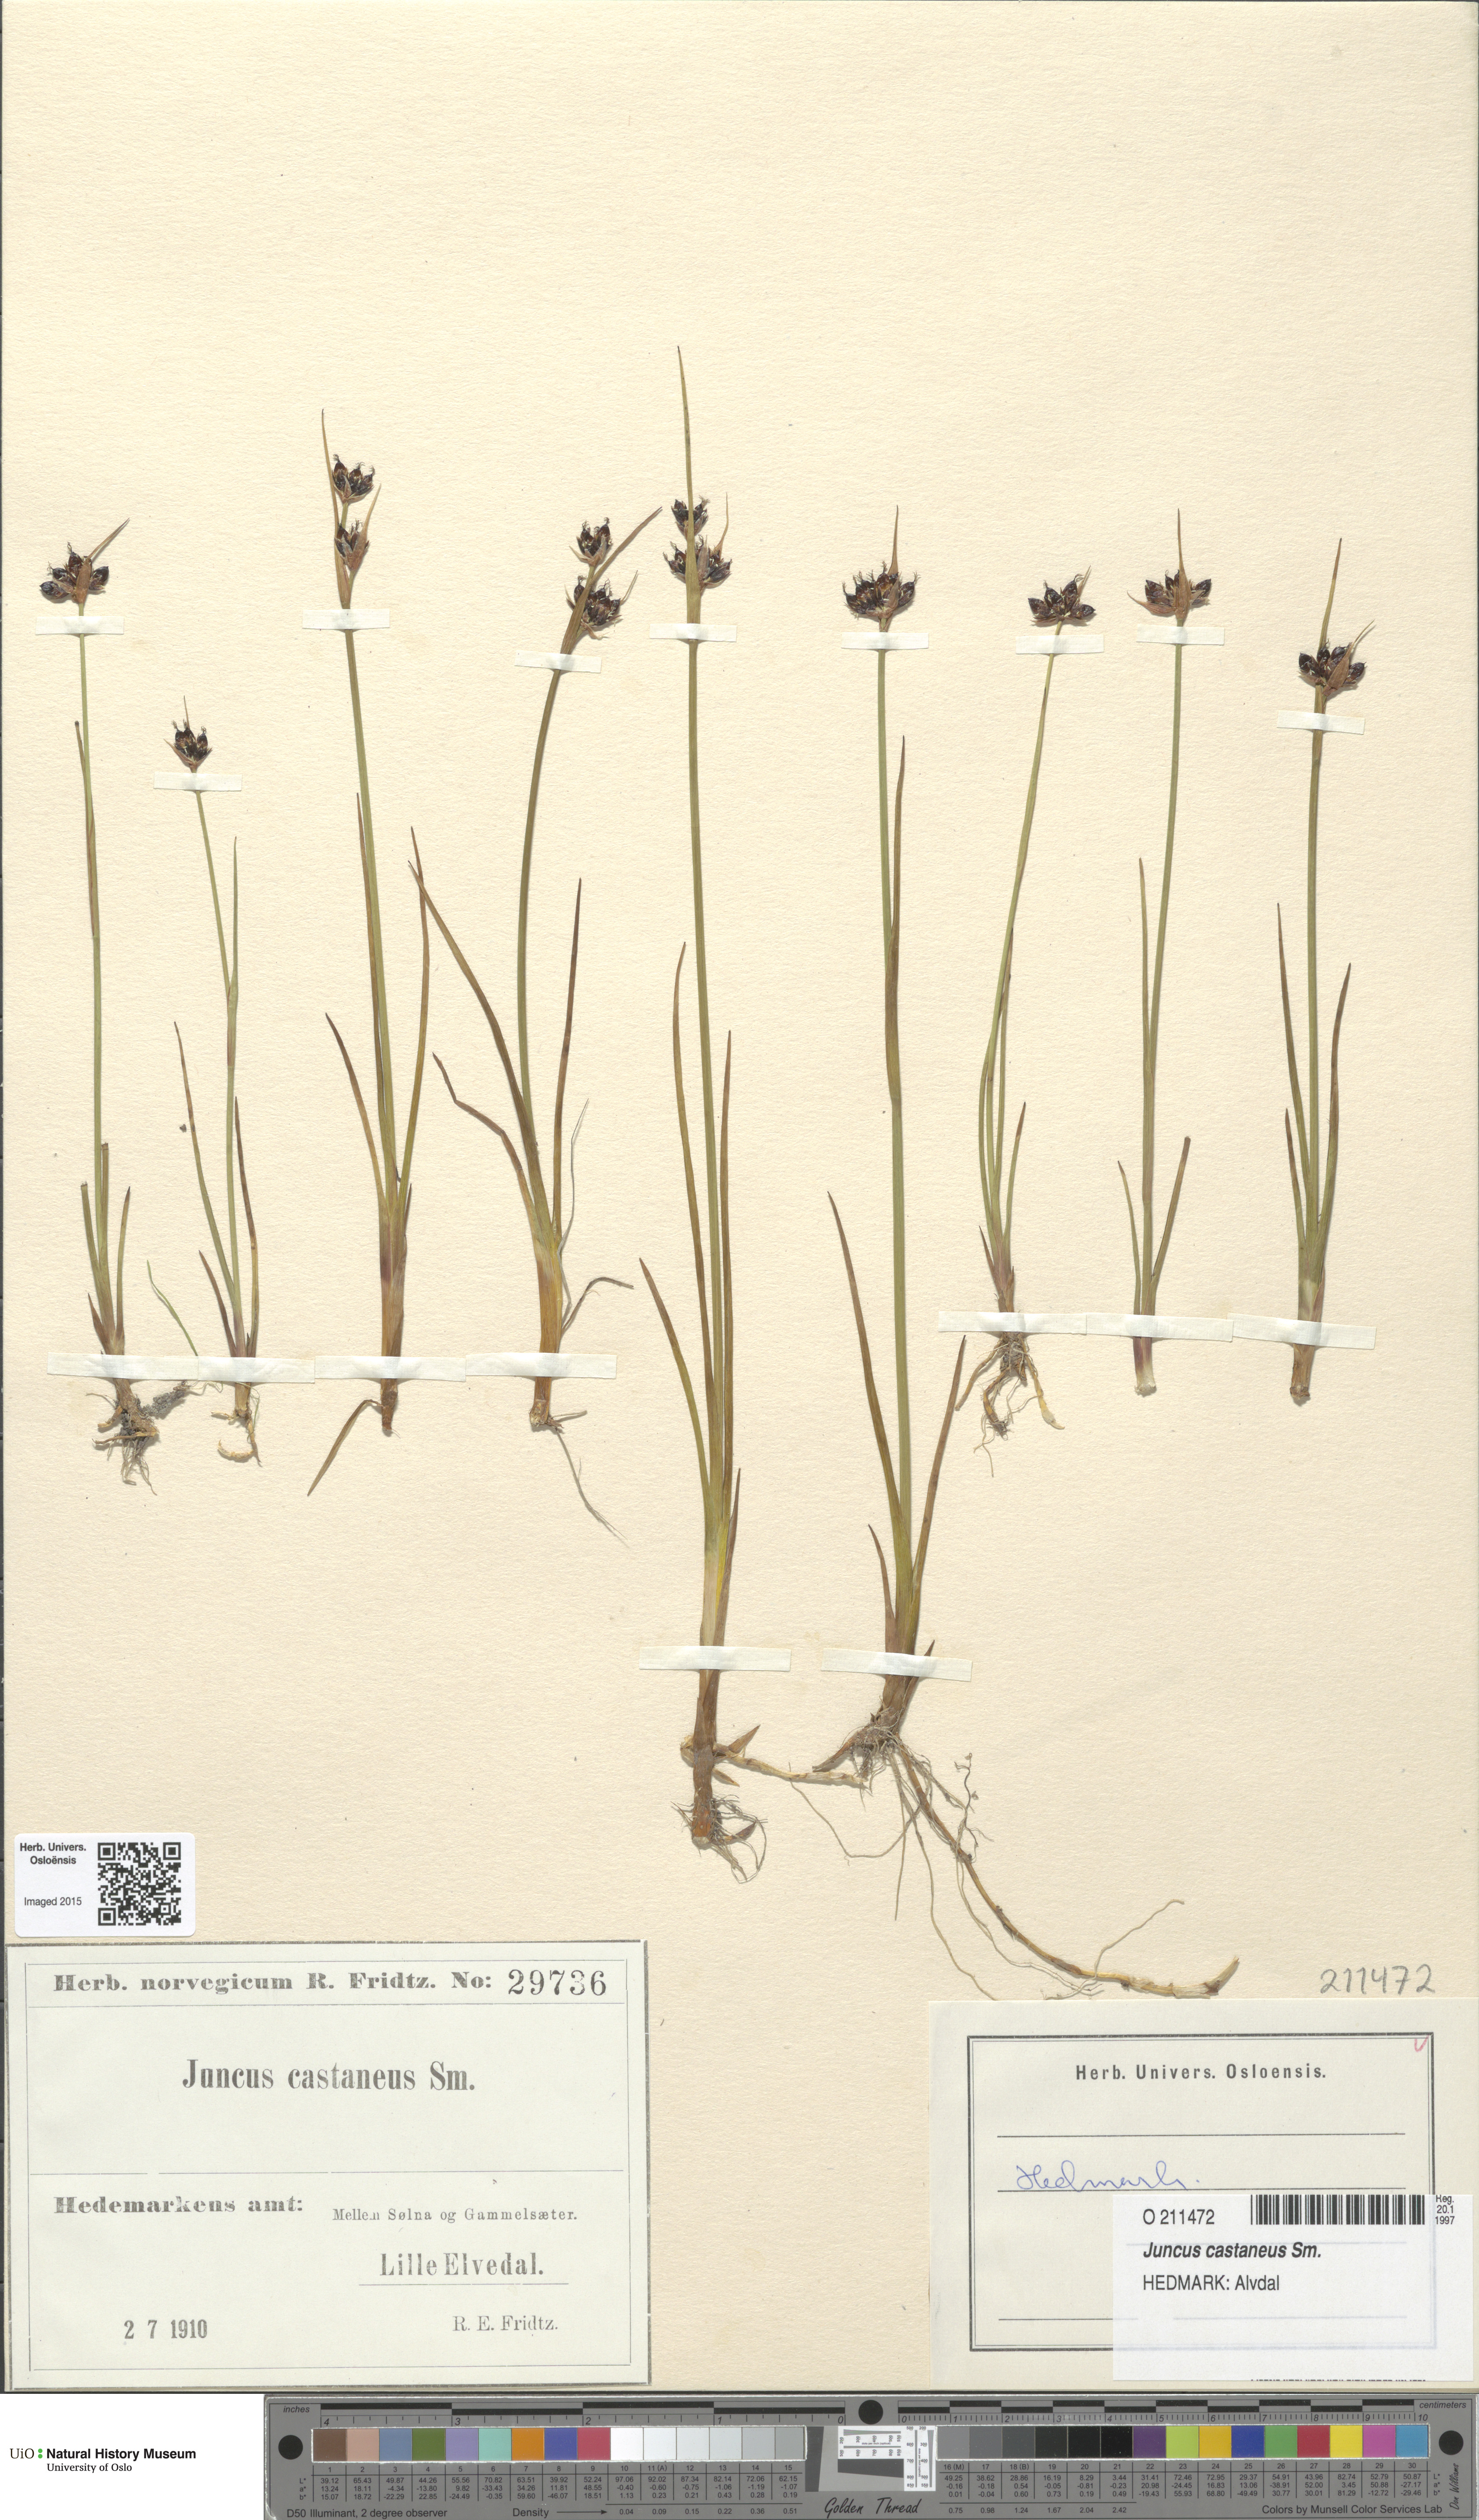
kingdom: Plantae
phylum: Tracheophyta
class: Liliopsida
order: Poales
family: Juncaceae
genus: Juncus
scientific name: Juncus castaneus
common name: Chestnut rush
